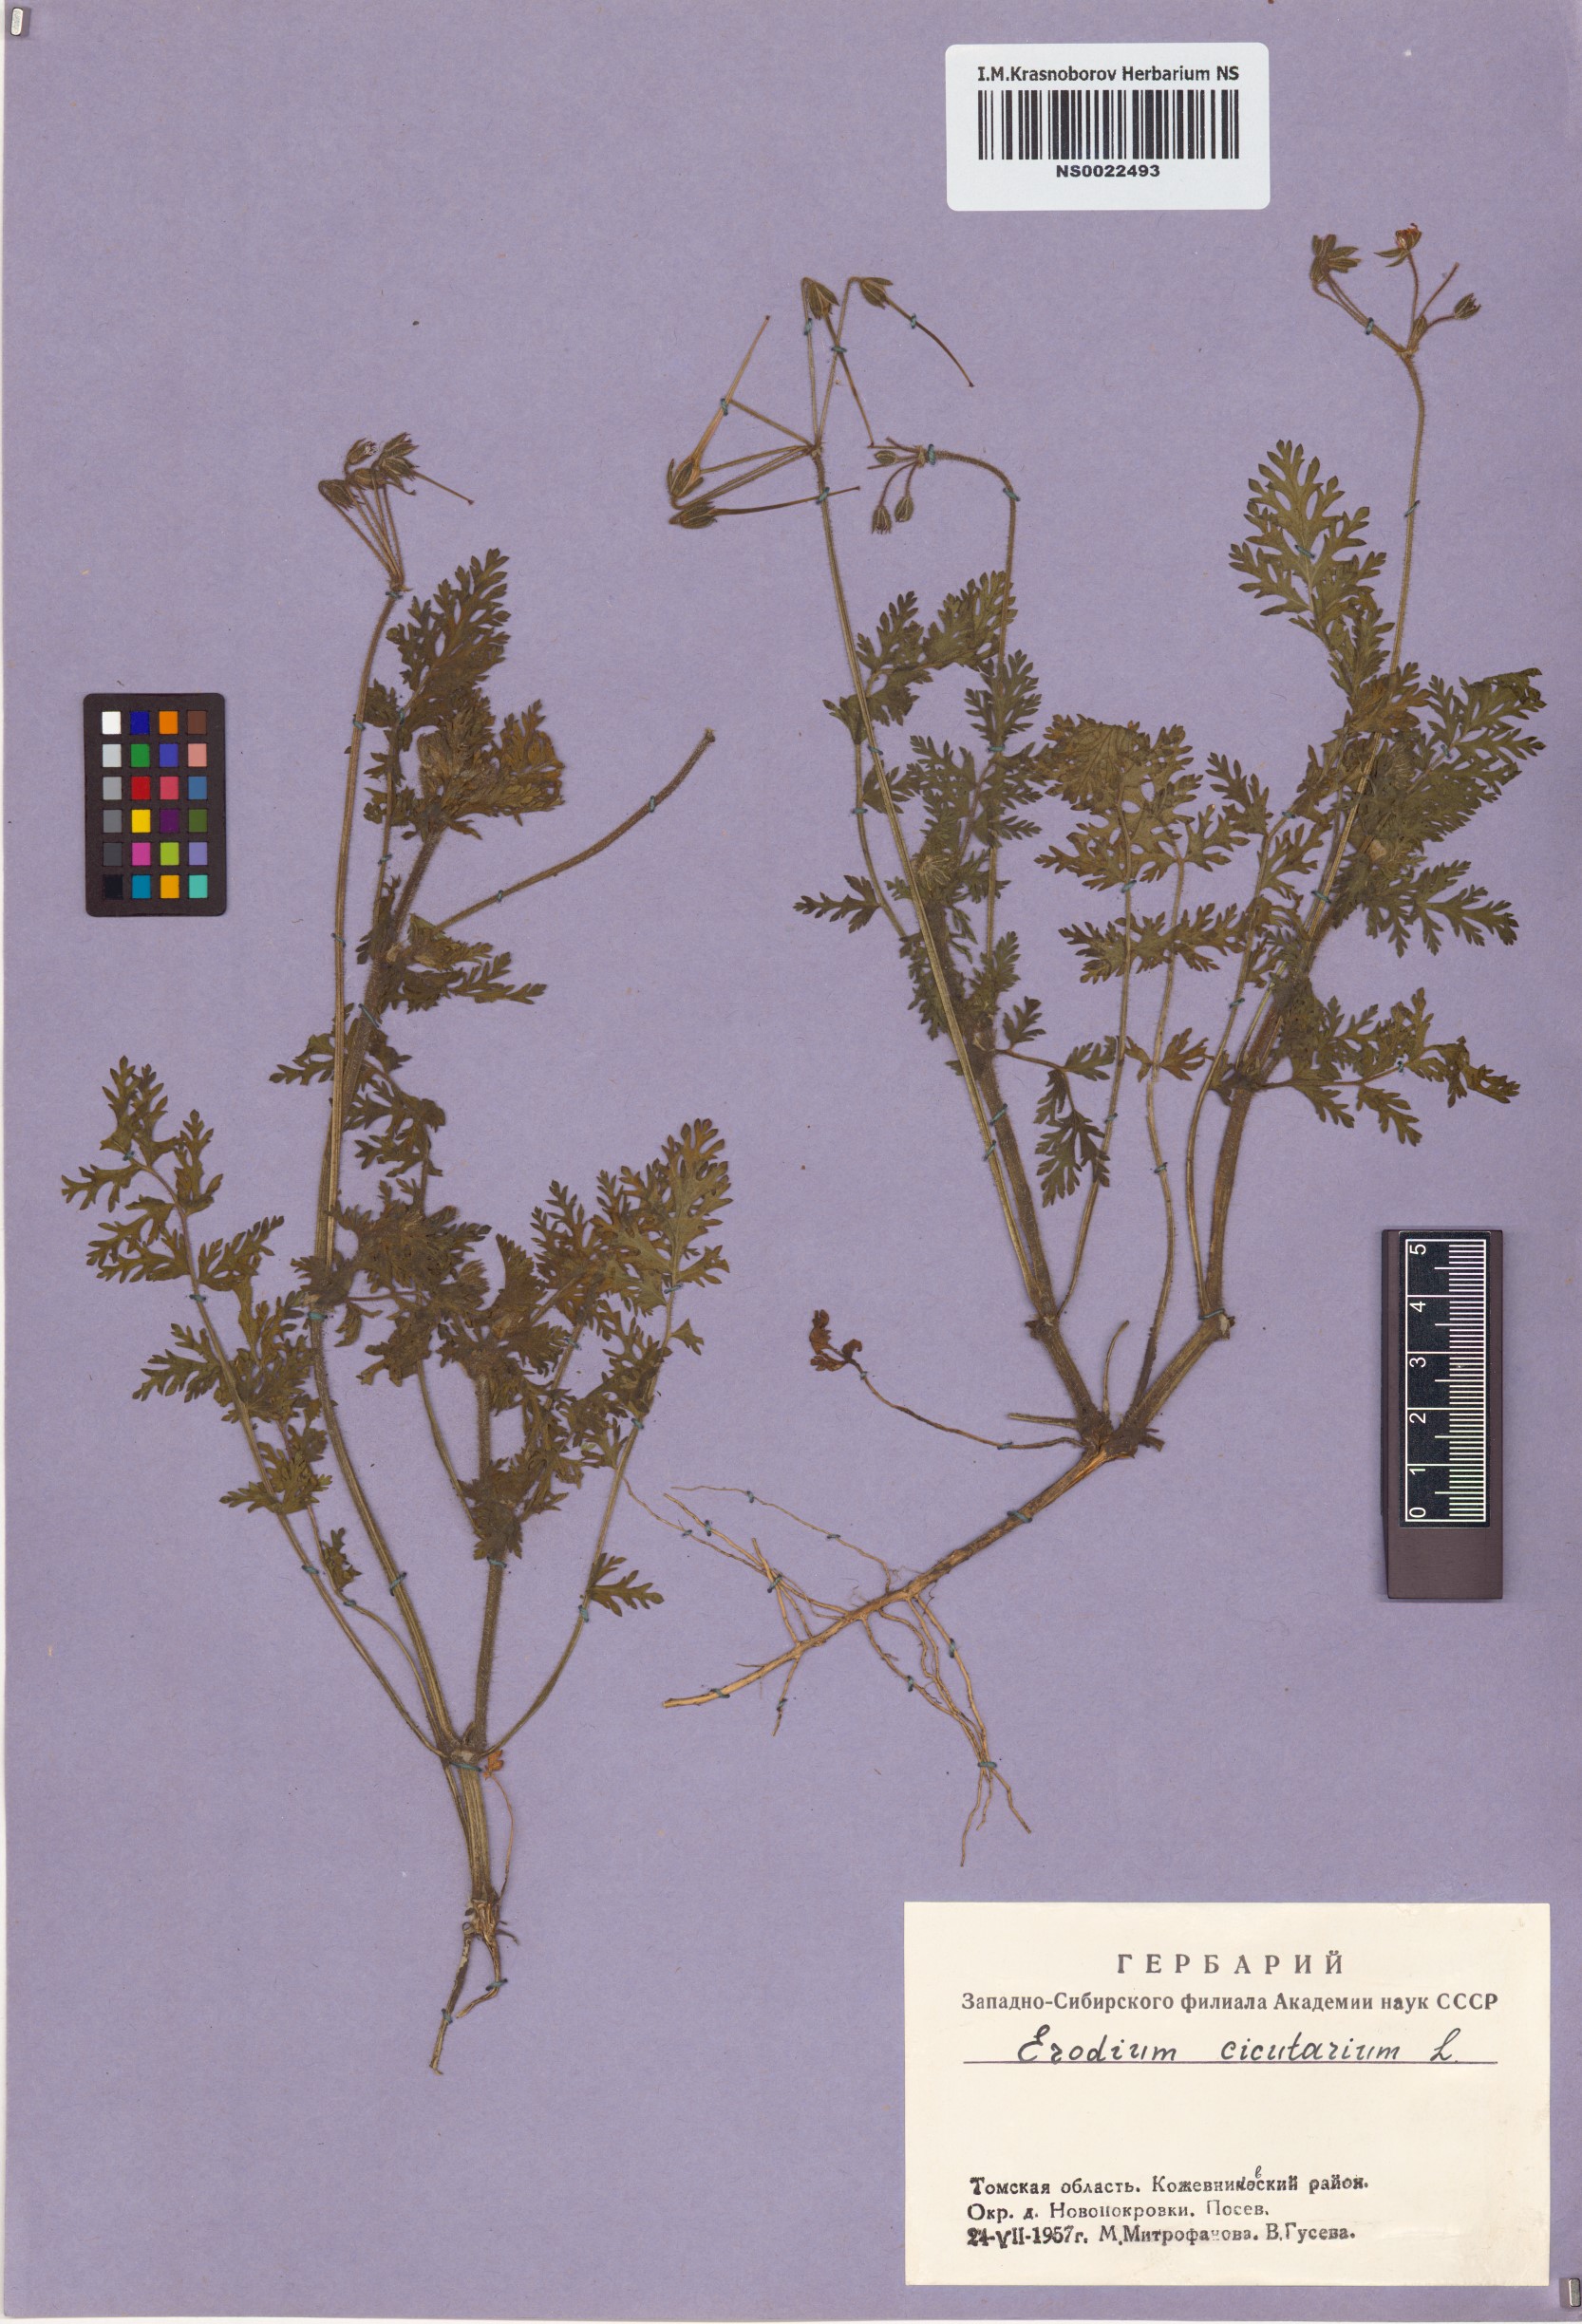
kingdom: Plantae
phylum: Tracheophyta
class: Magnoliopsida
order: Geraniales
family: Geraniaceae
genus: Erodium
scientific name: Erodium cicutarium
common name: Common stork's-bill
